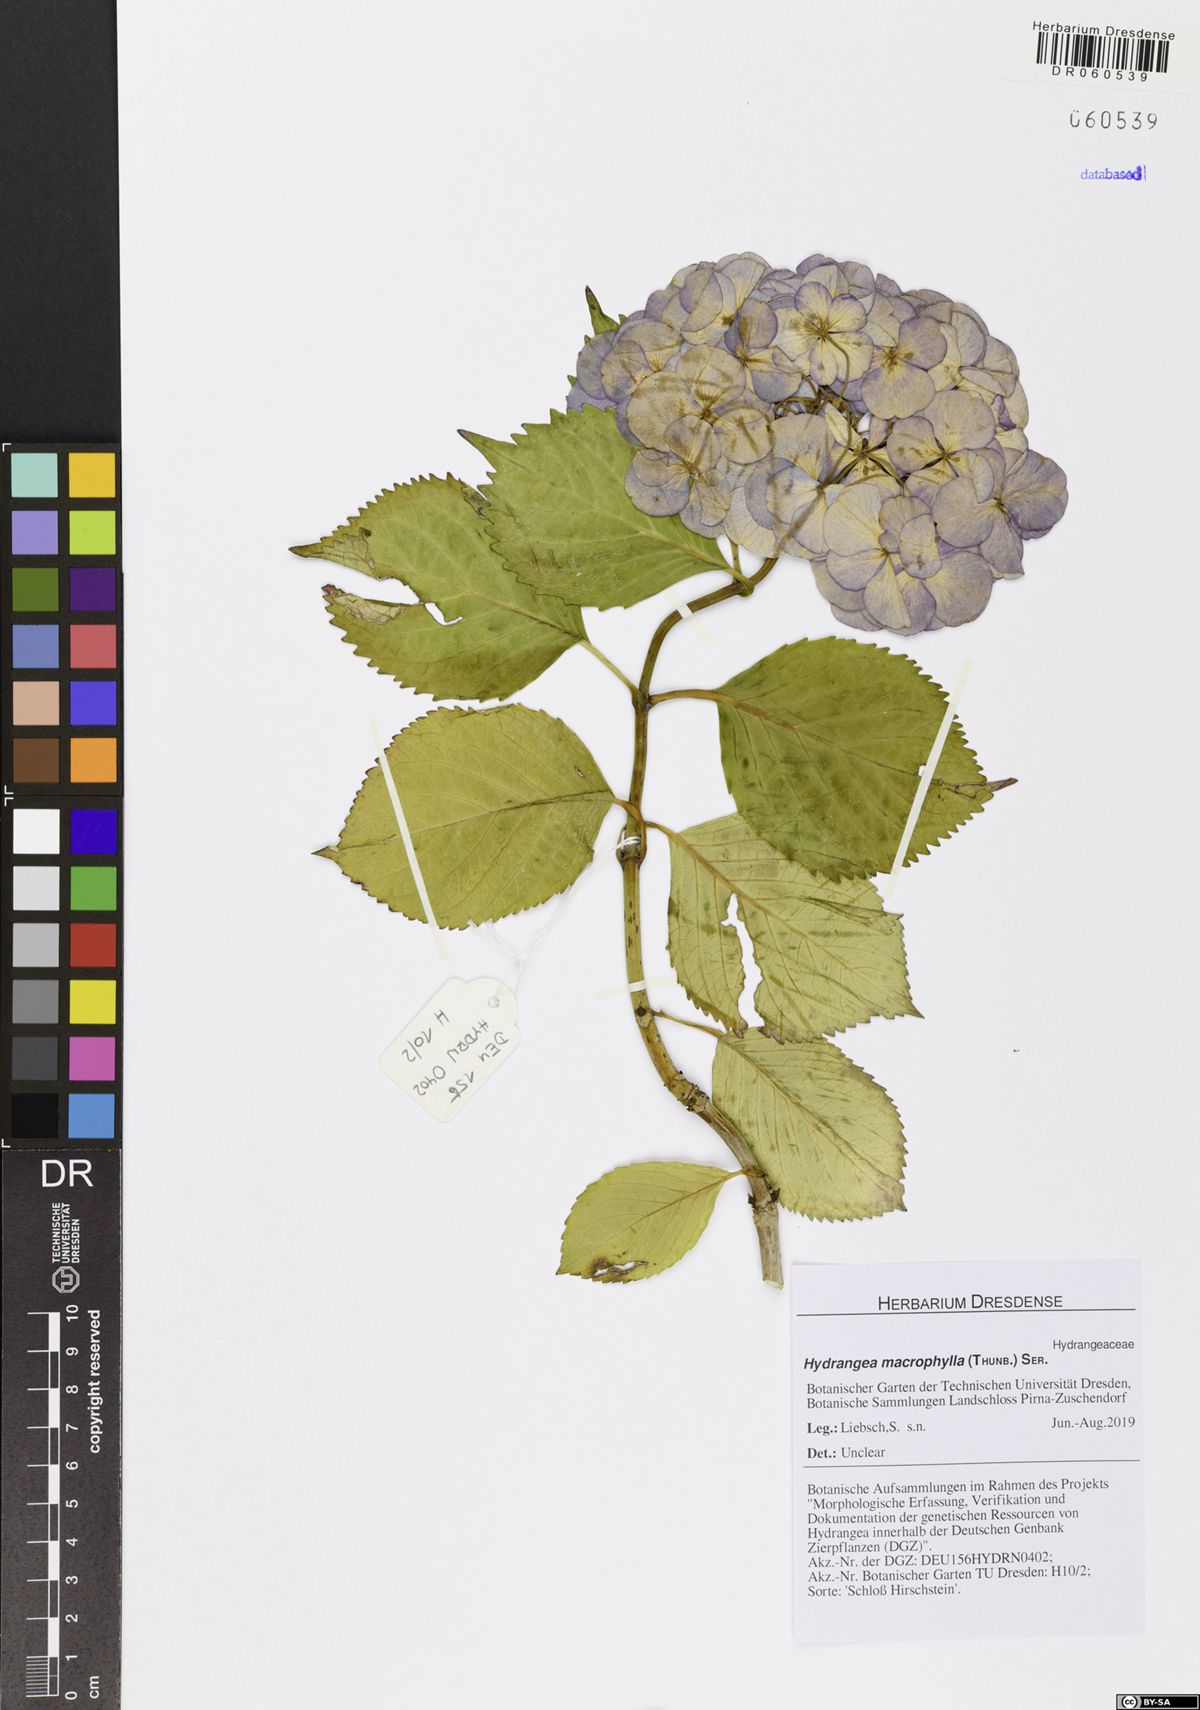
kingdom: Plantae
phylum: Tracheophyta
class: Magnoliopsida
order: Cornales
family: Hydrangeaceae
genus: Hydrangea
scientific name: Hydrangea macrophylla
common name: Hydrangea
